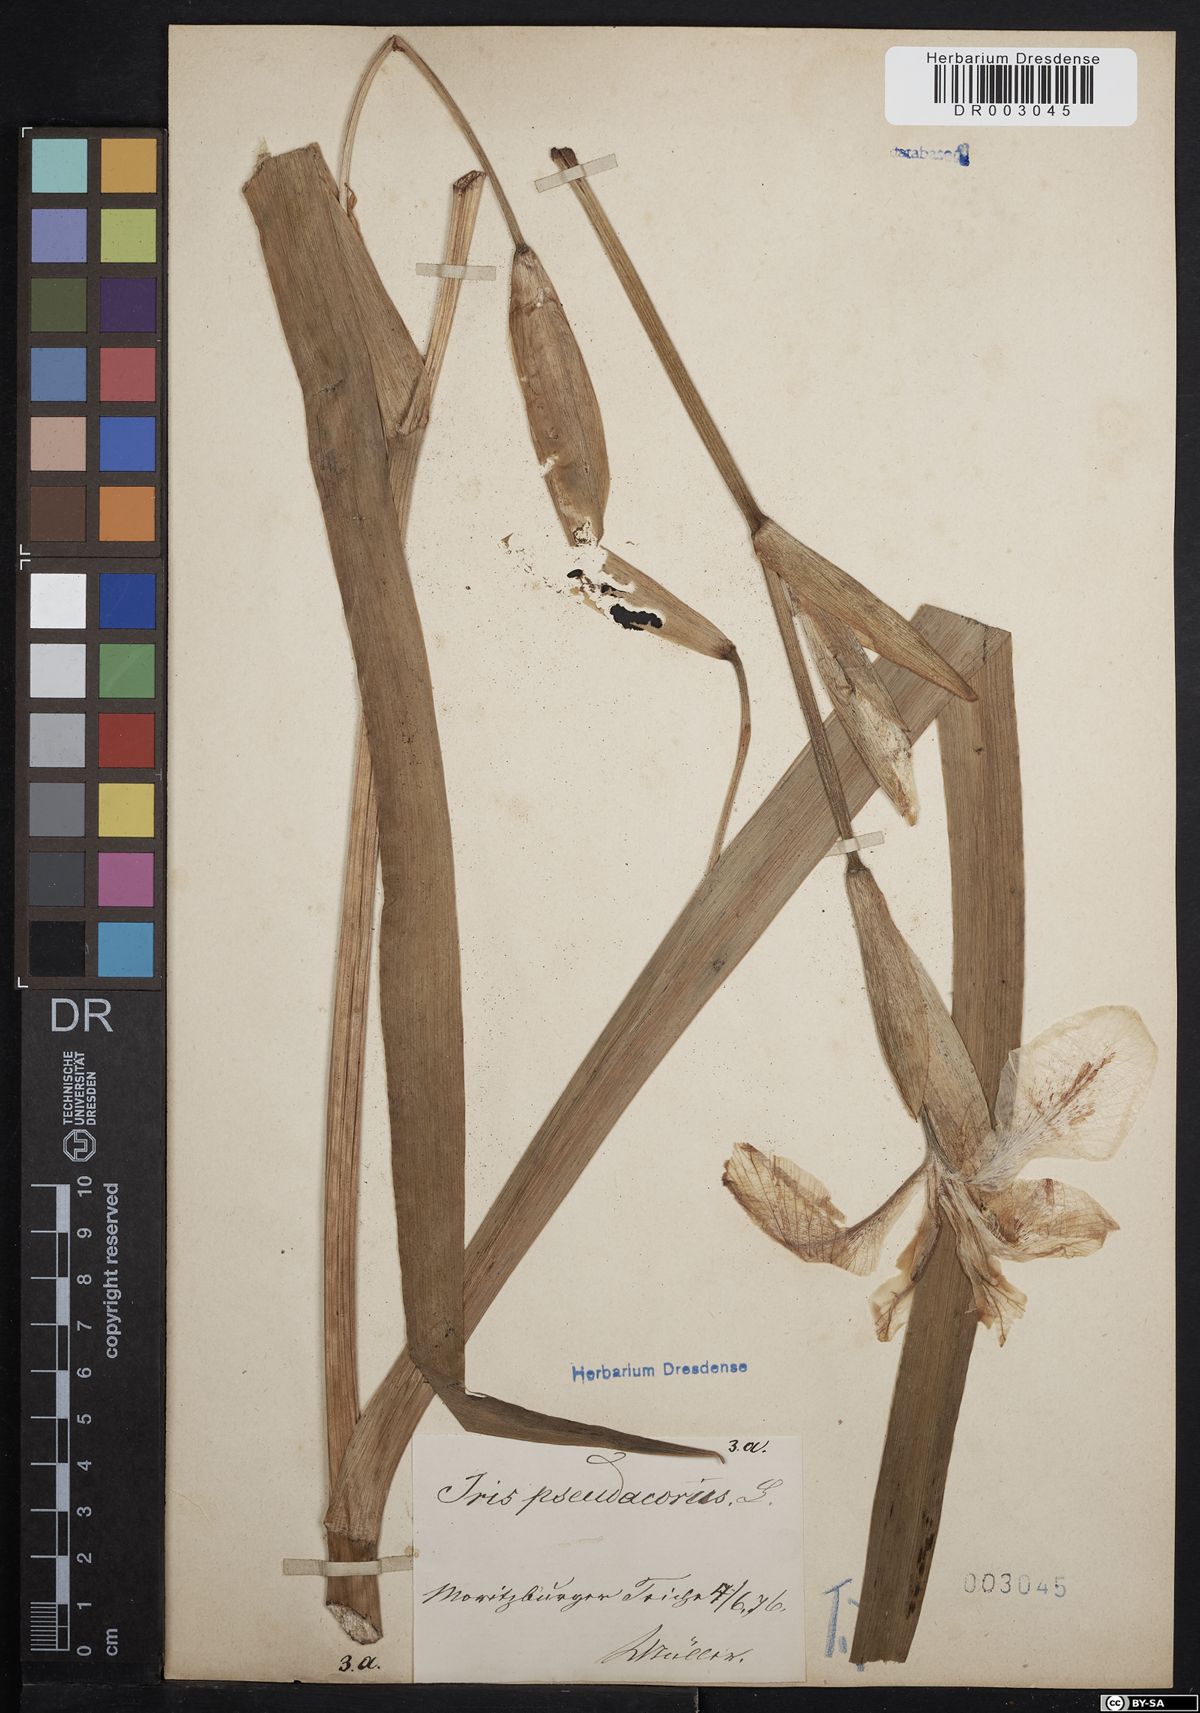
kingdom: Plantae
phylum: Tracheophyta
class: Liliopsida
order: Asparagales
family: Iridaceae
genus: Iris
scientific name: Iris pseudacorus
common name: Yellow flag
